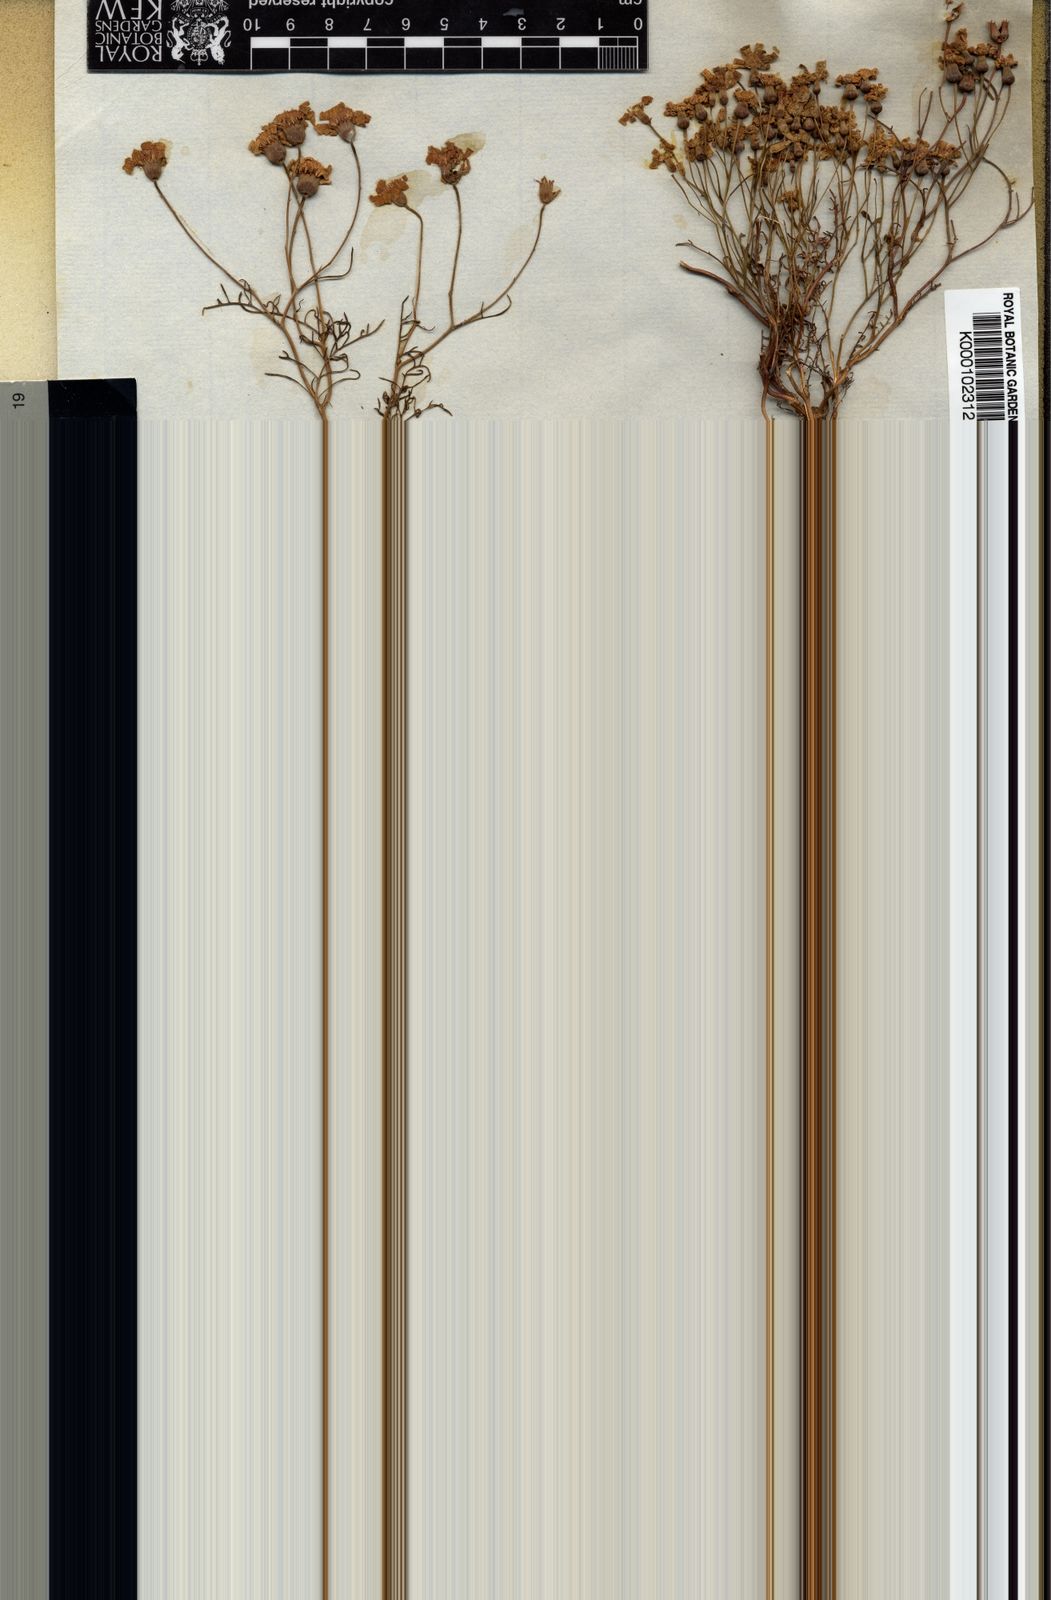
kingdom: Plantae
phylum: Tracheophyta
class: Magnoliopsida
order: Asterales
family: Asteraceae
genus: Steirodiscus
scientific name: Steirodiscus tagetes
